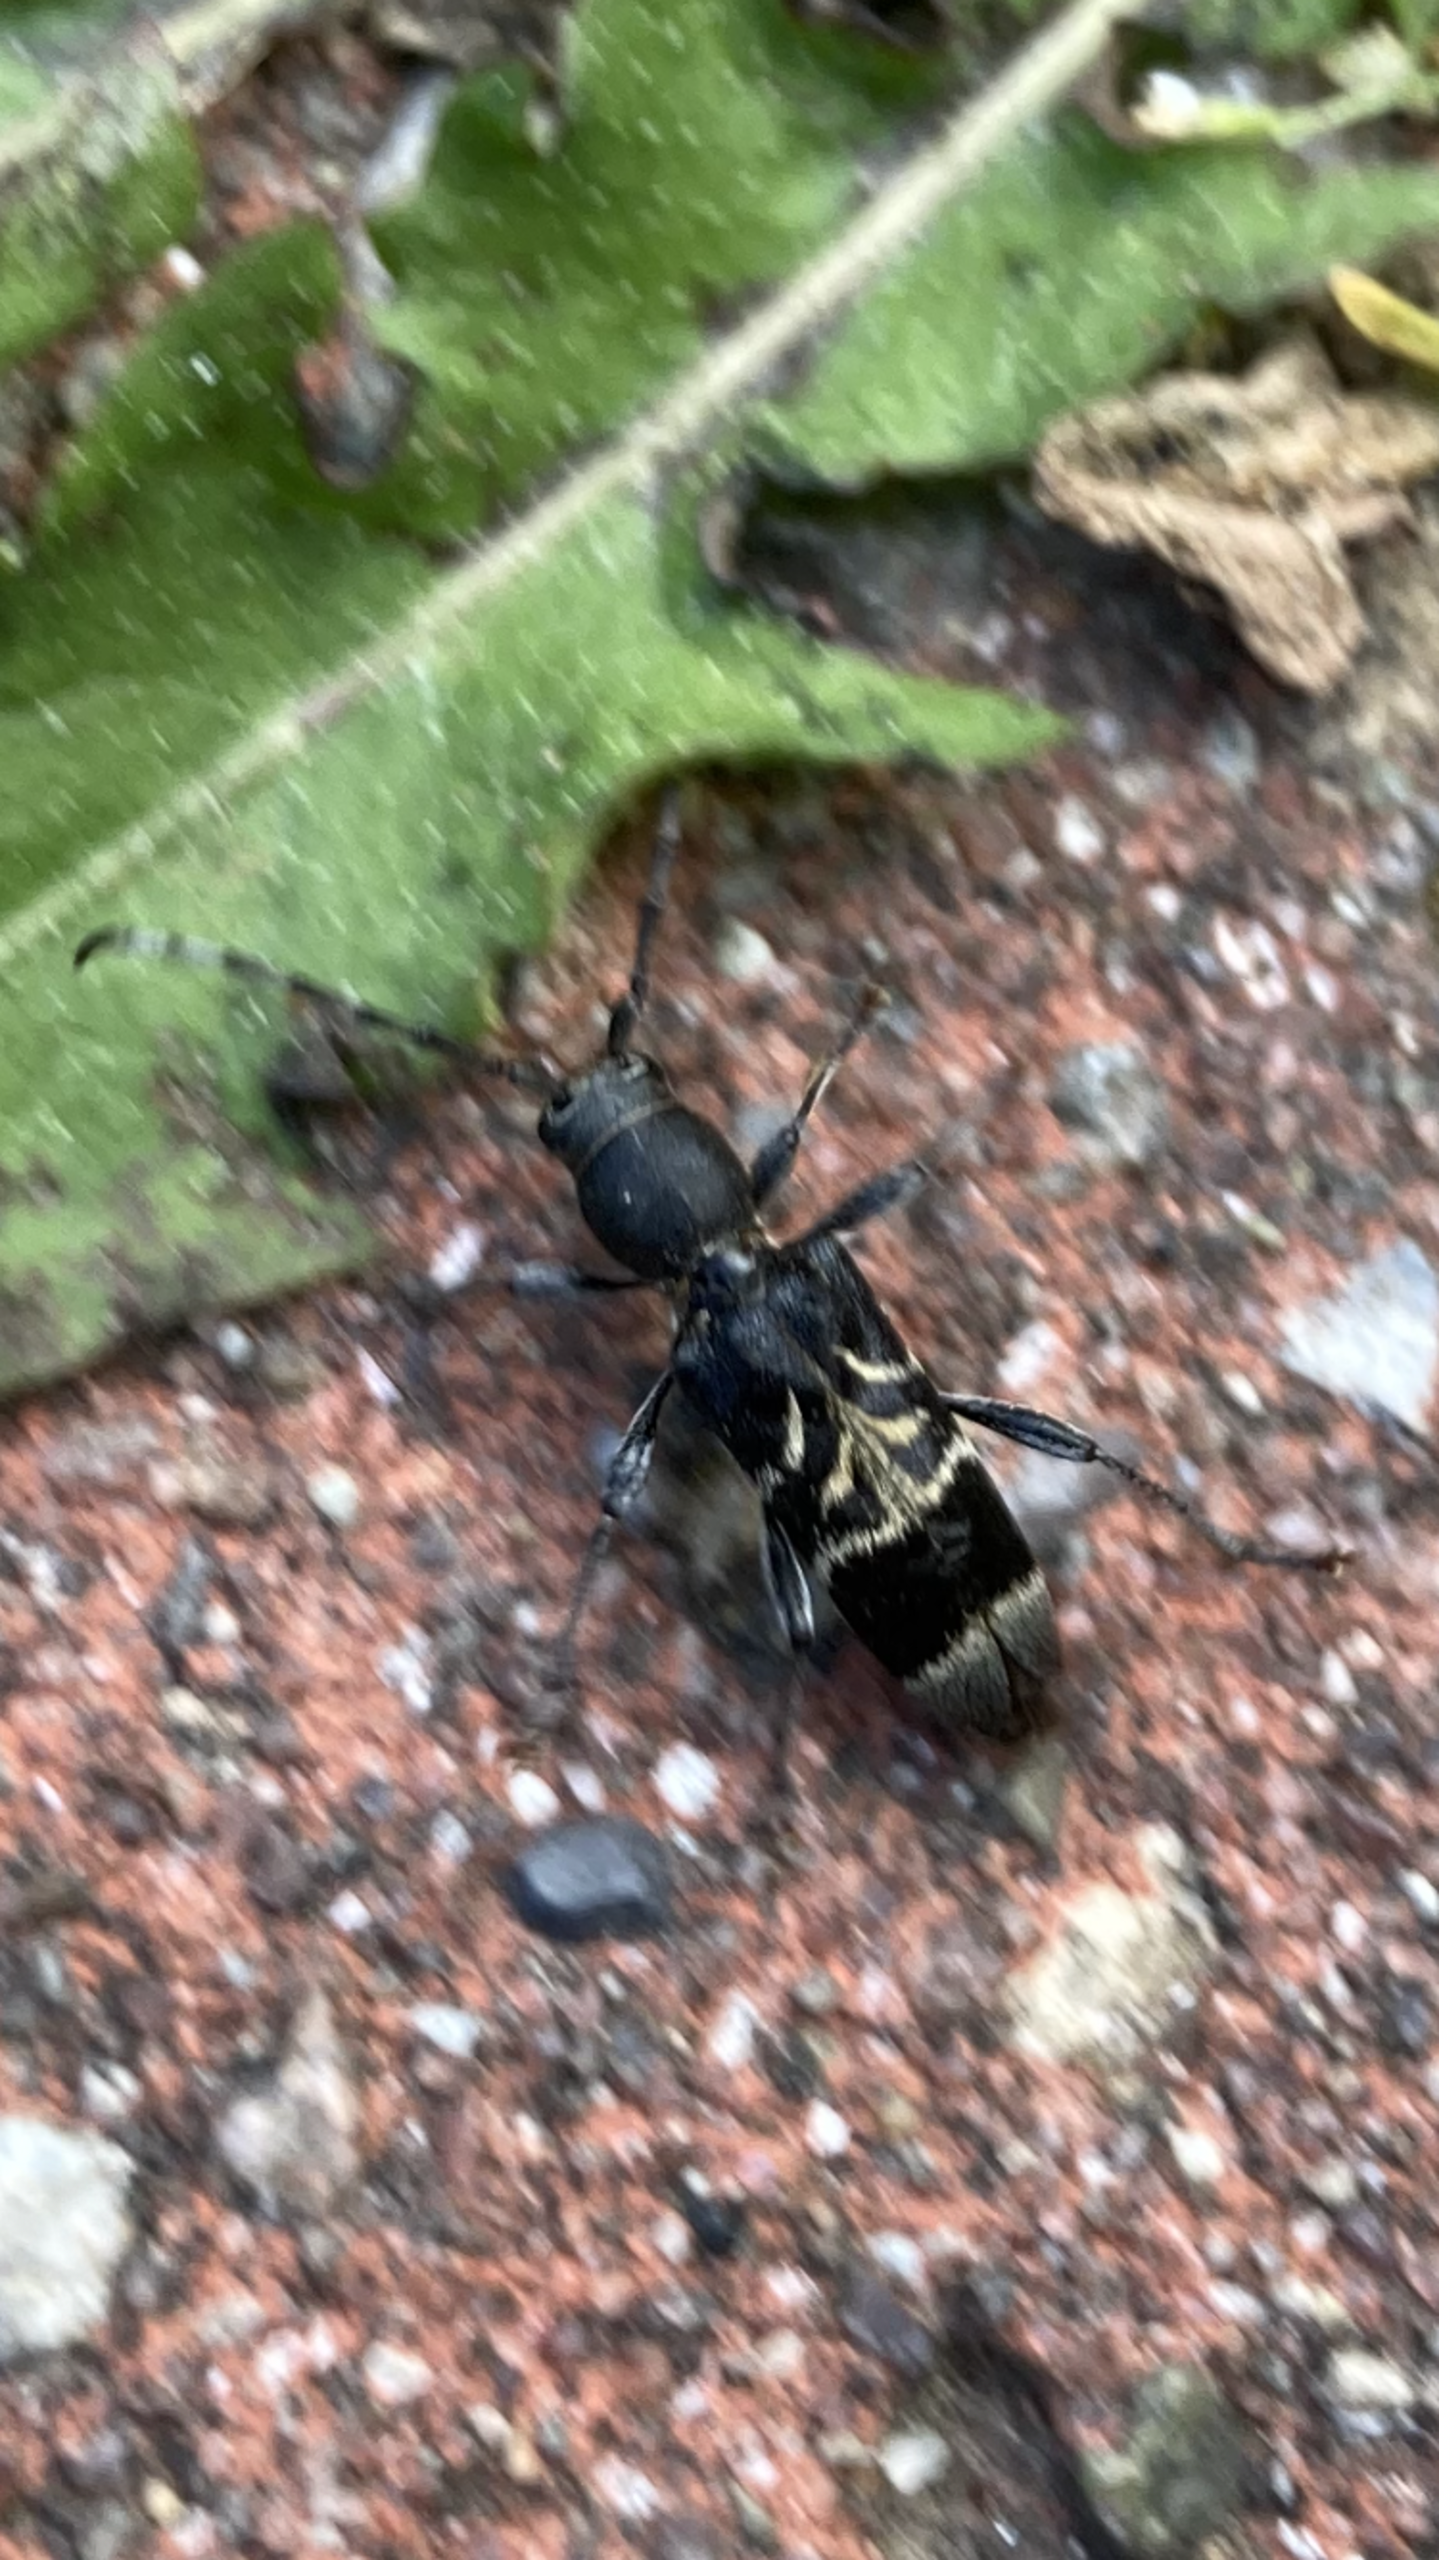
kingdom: Animalia
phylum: Arthropoda
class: Insecta
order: Coleoptera
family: Cerambycidae
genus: Anaglyptus
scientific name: Anaglyptus mysticus
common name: Hvidtjørnshvepsebuk
